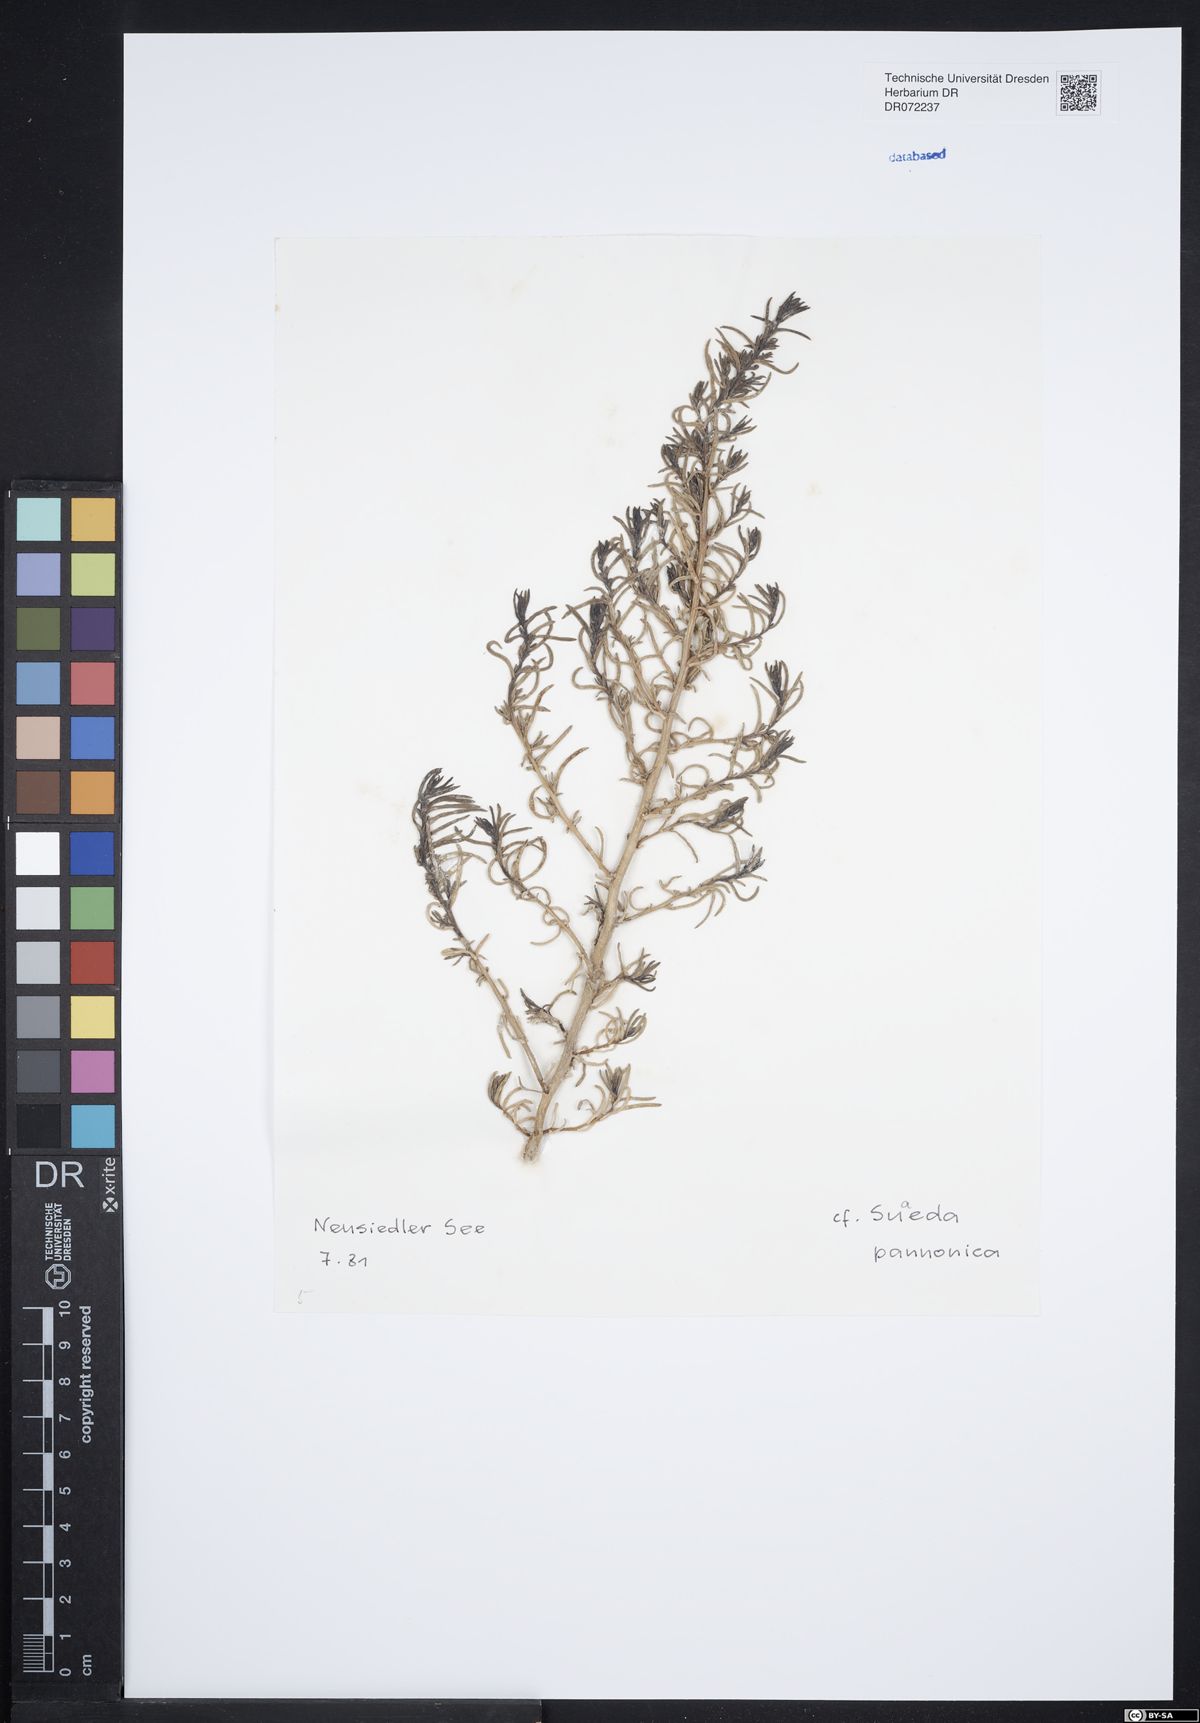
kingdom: Plantae
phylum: Tracheophyta
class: Magnoliopsida
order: Caryophyllales
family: Amaranthaceae
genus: Suaeda
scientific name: Suaeda pannonica
